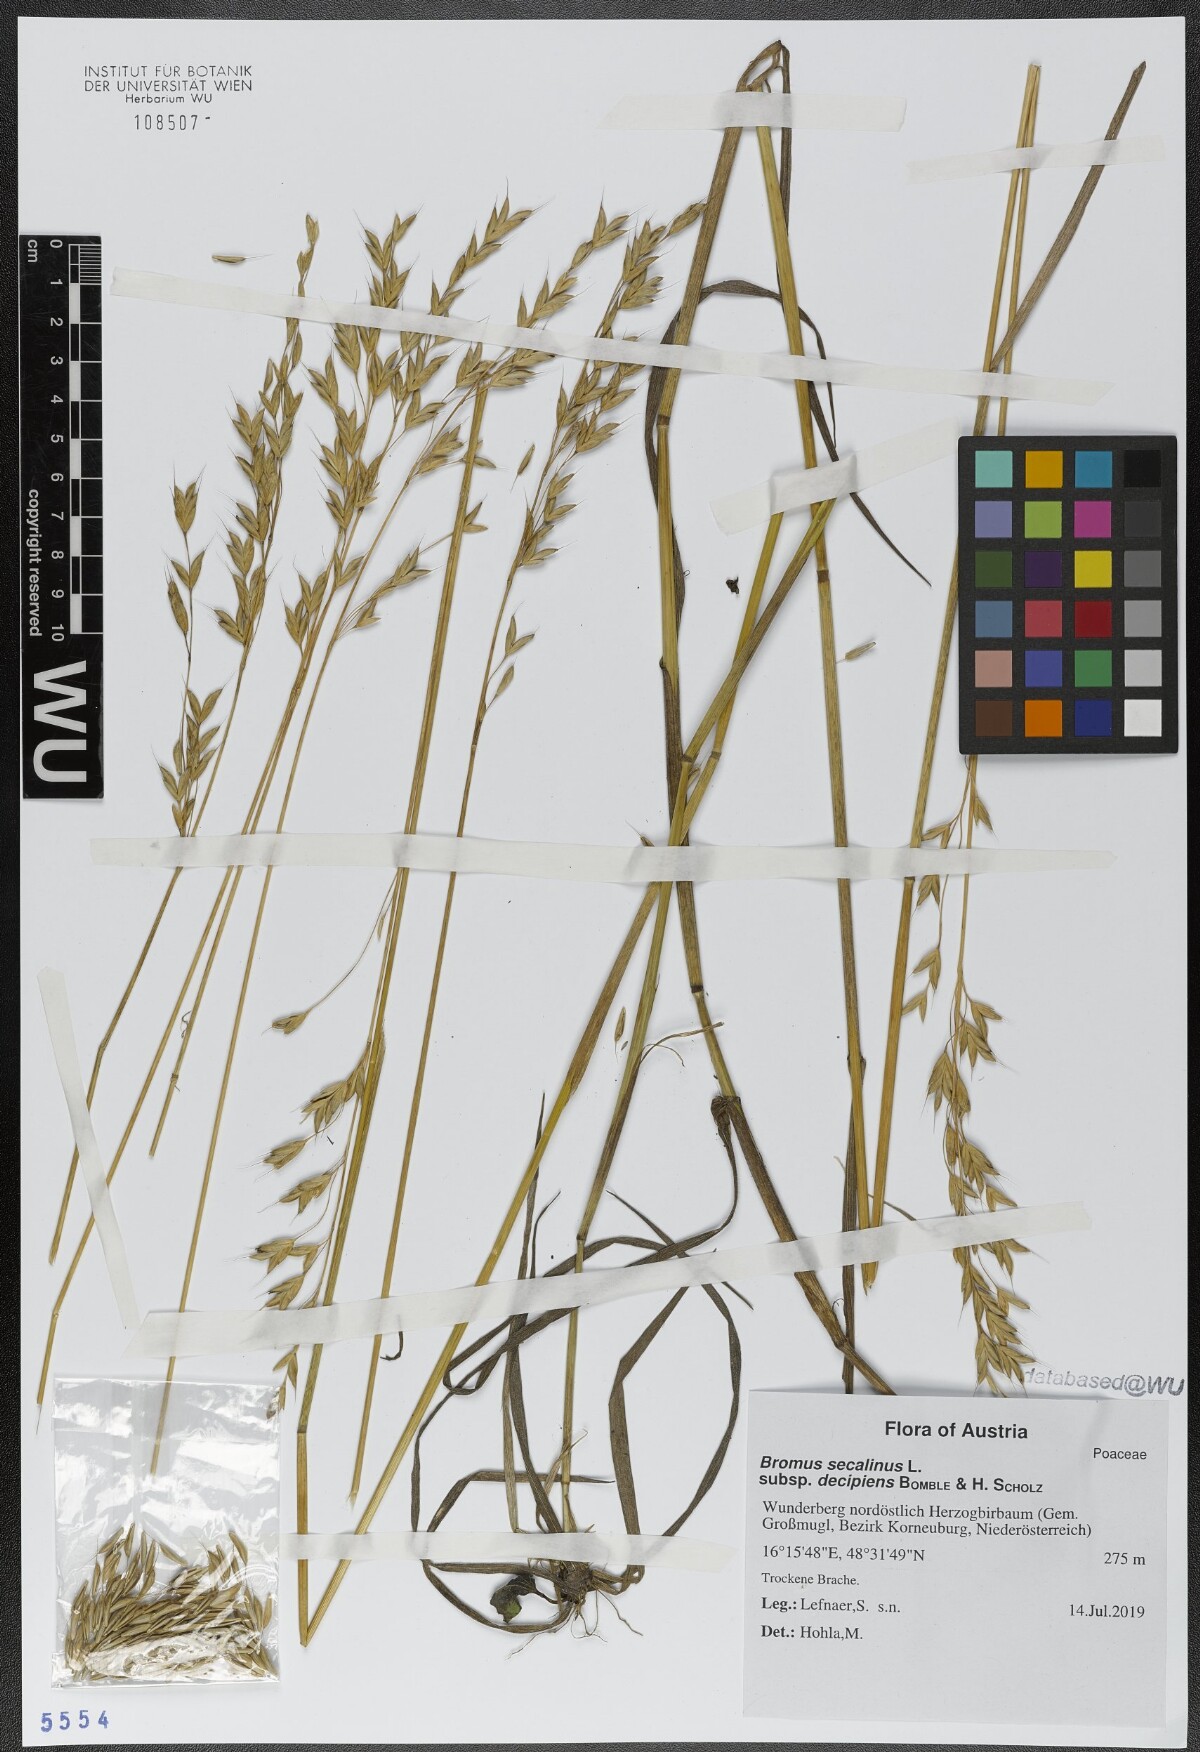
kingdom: Plantae
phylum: Tracheophyta
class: Liliopsida
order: Poales
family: Poaceae
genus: Bromus
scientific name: Bromus commutatus
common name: Meadow brome
